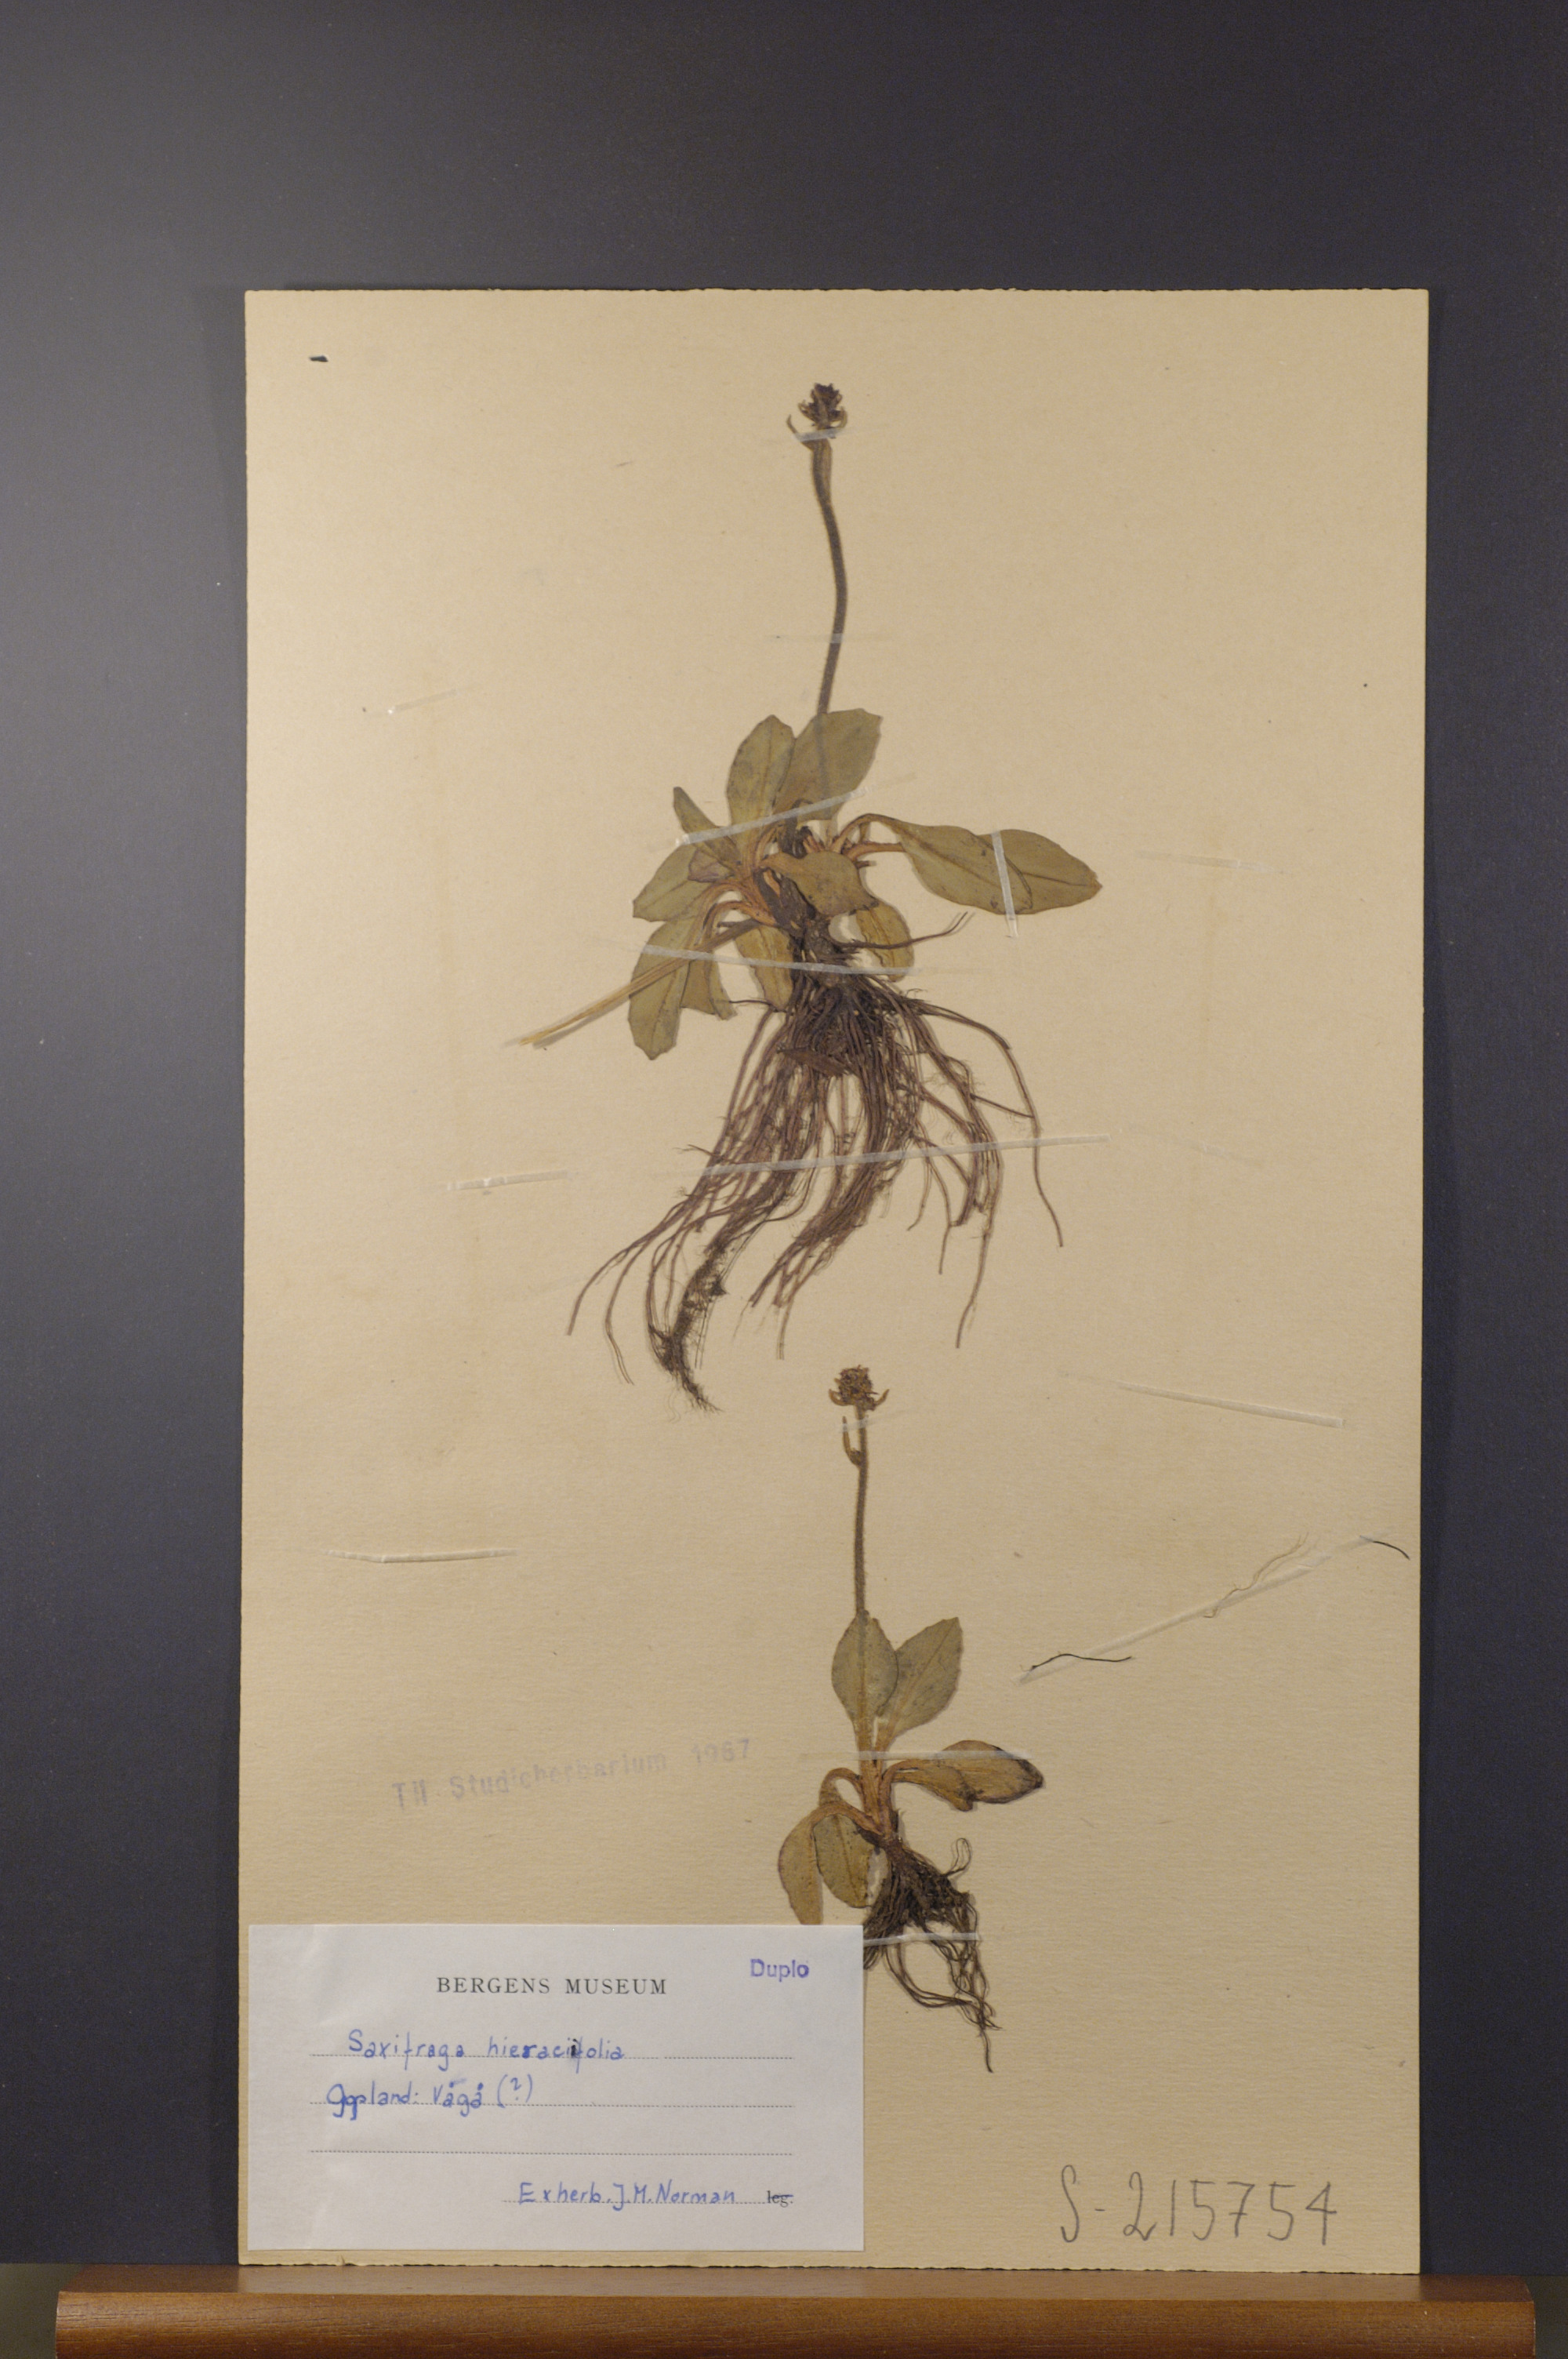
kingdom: Plantae
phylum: Tracheophyta
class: Magnoliopsida
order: Saxifragales
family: Saxifragaceae
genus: Micranthes
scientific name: Micranthes hieraciifolia
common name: Hawkweed-leaved saxifrage
